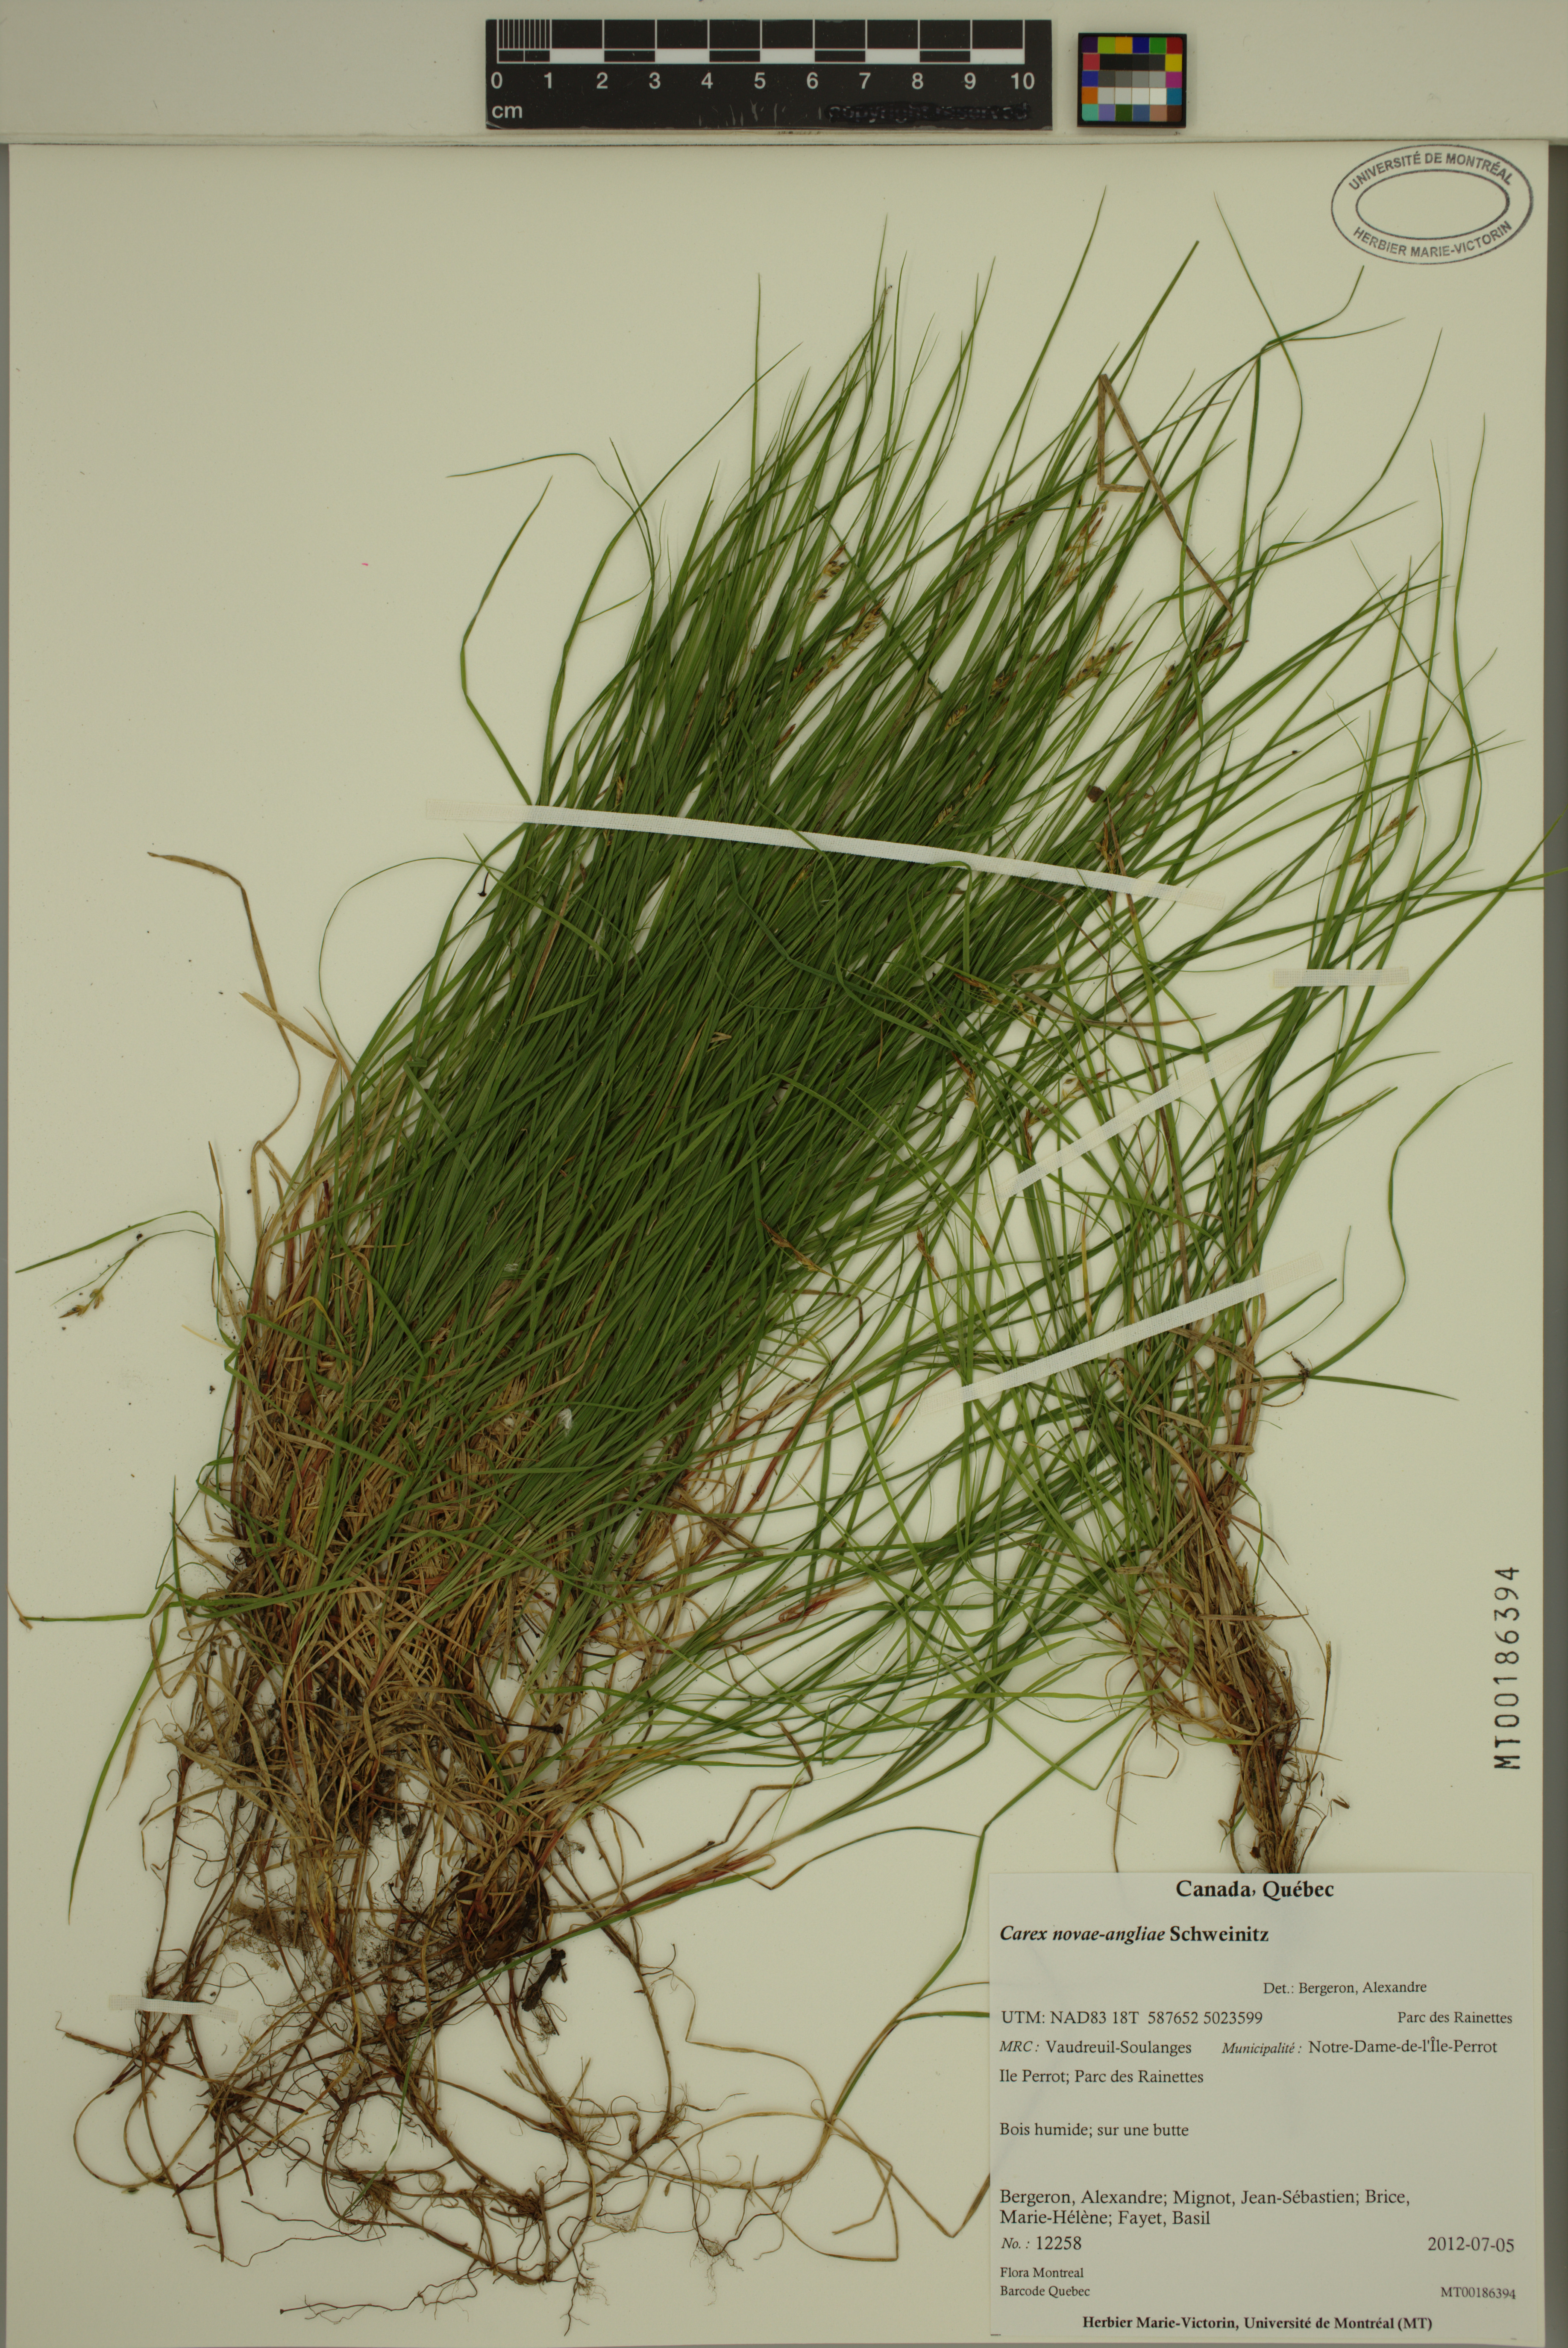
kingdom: Plantae
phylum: Tracheophyta
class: Liliopsida
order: Poales
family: Cyperaceae
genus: Carex
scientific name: Carex novae-angliae
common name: New england sedge
